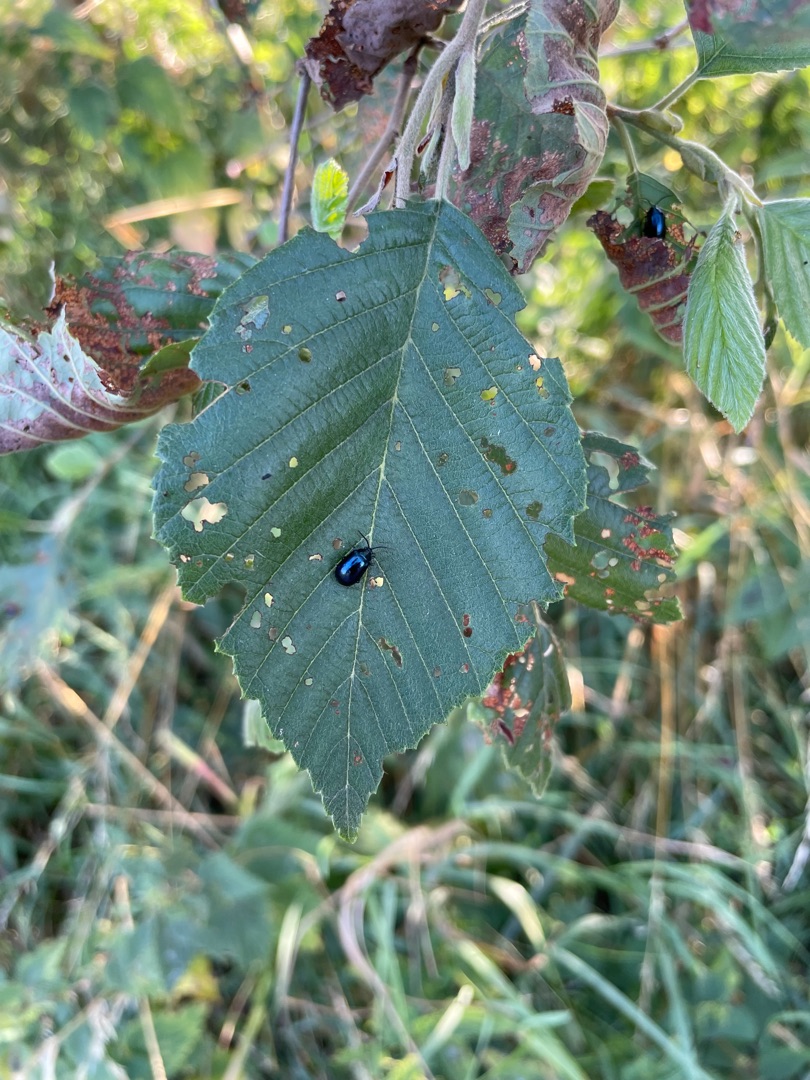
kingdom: Animalia
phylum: Arthropoda
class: Insecta
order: Coleoptera
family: Chrysomelidae
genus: Agelastica
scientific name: Agelastica alni
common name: Ellebladbille
